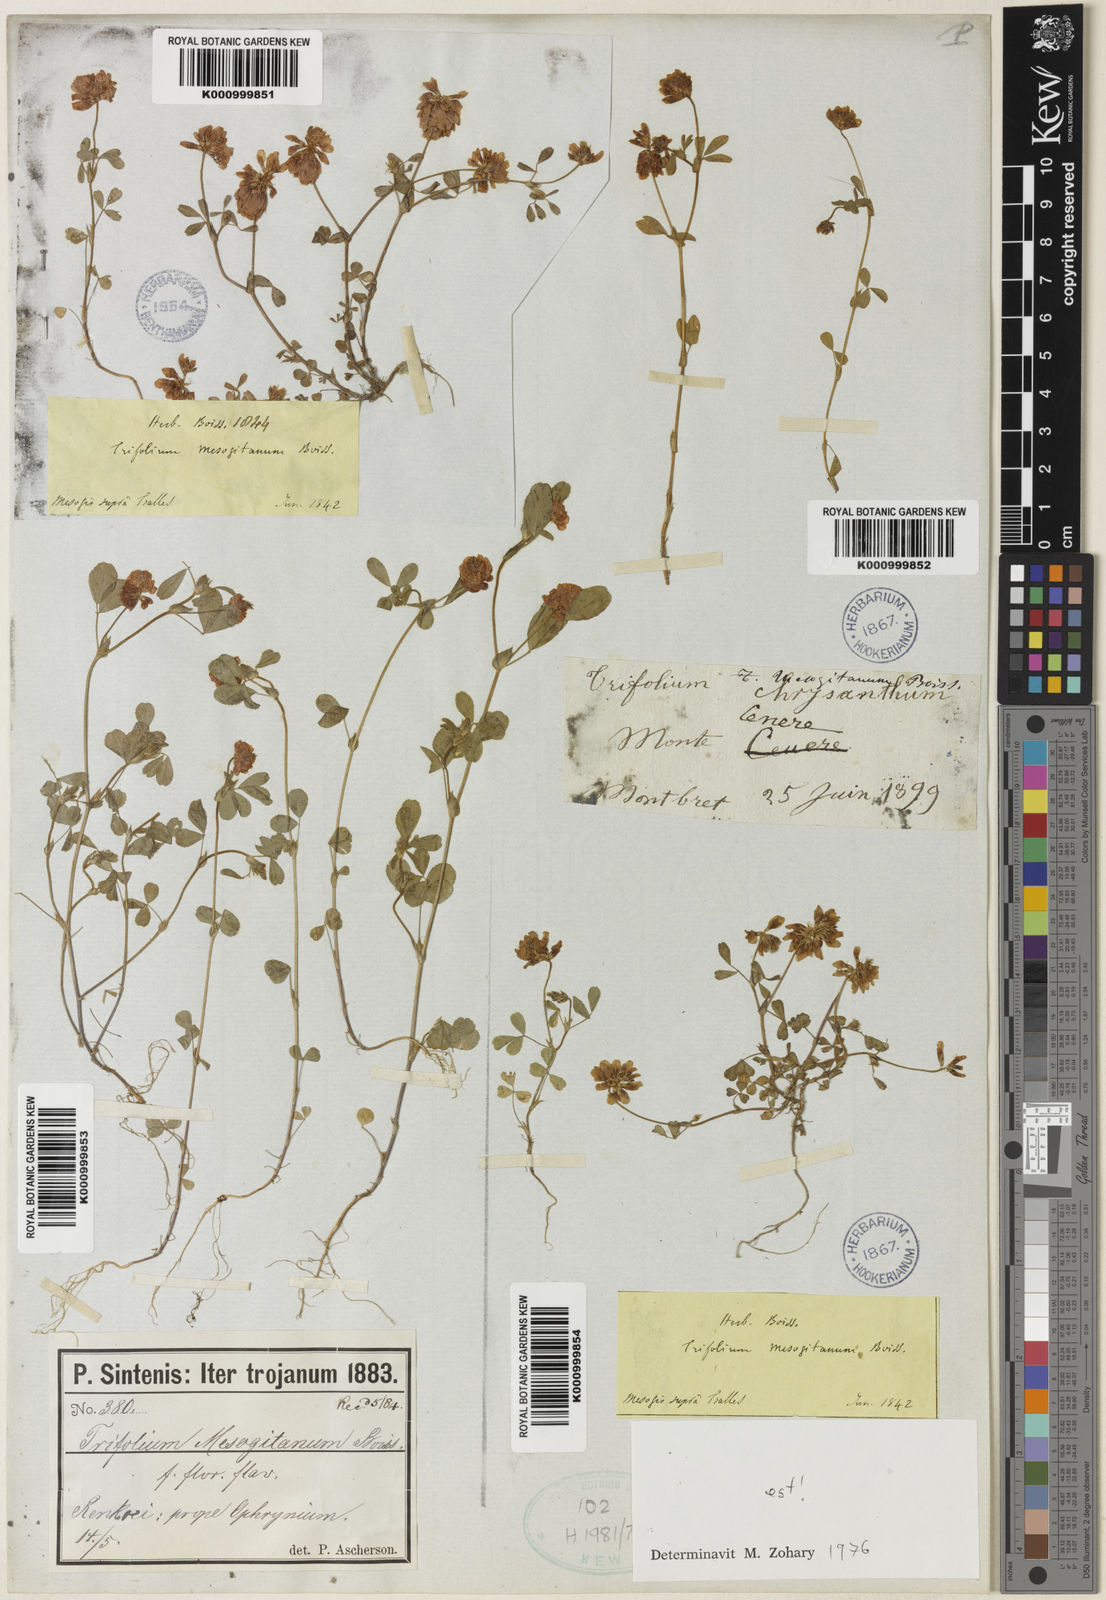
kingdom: Plantae
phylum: Tracheophyta
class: Magnoliopsida
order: Fabales
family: Fabaceae
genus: Trifolium
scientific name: Trifolium mesogitanum
